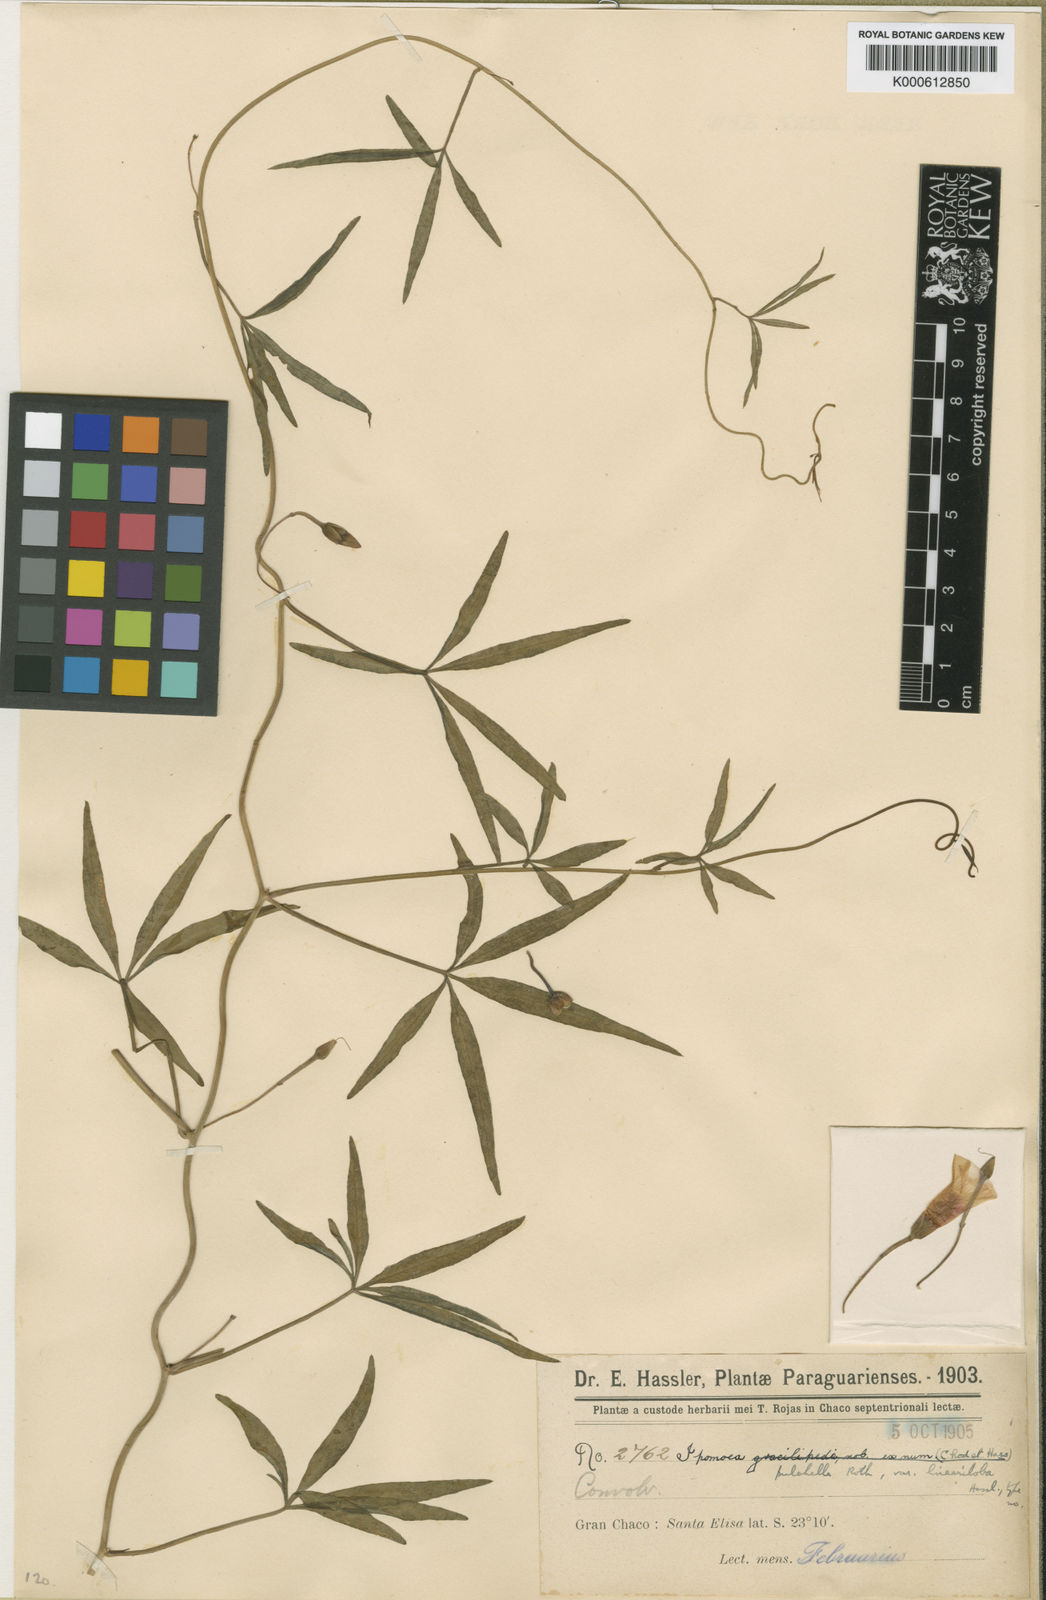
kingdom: Plantae
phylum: Tracheophyta
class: Magnoliopsida
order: Solanales
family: Convolvulaceae
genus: Ipomoea
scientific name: Ipomoea subrevoluta
